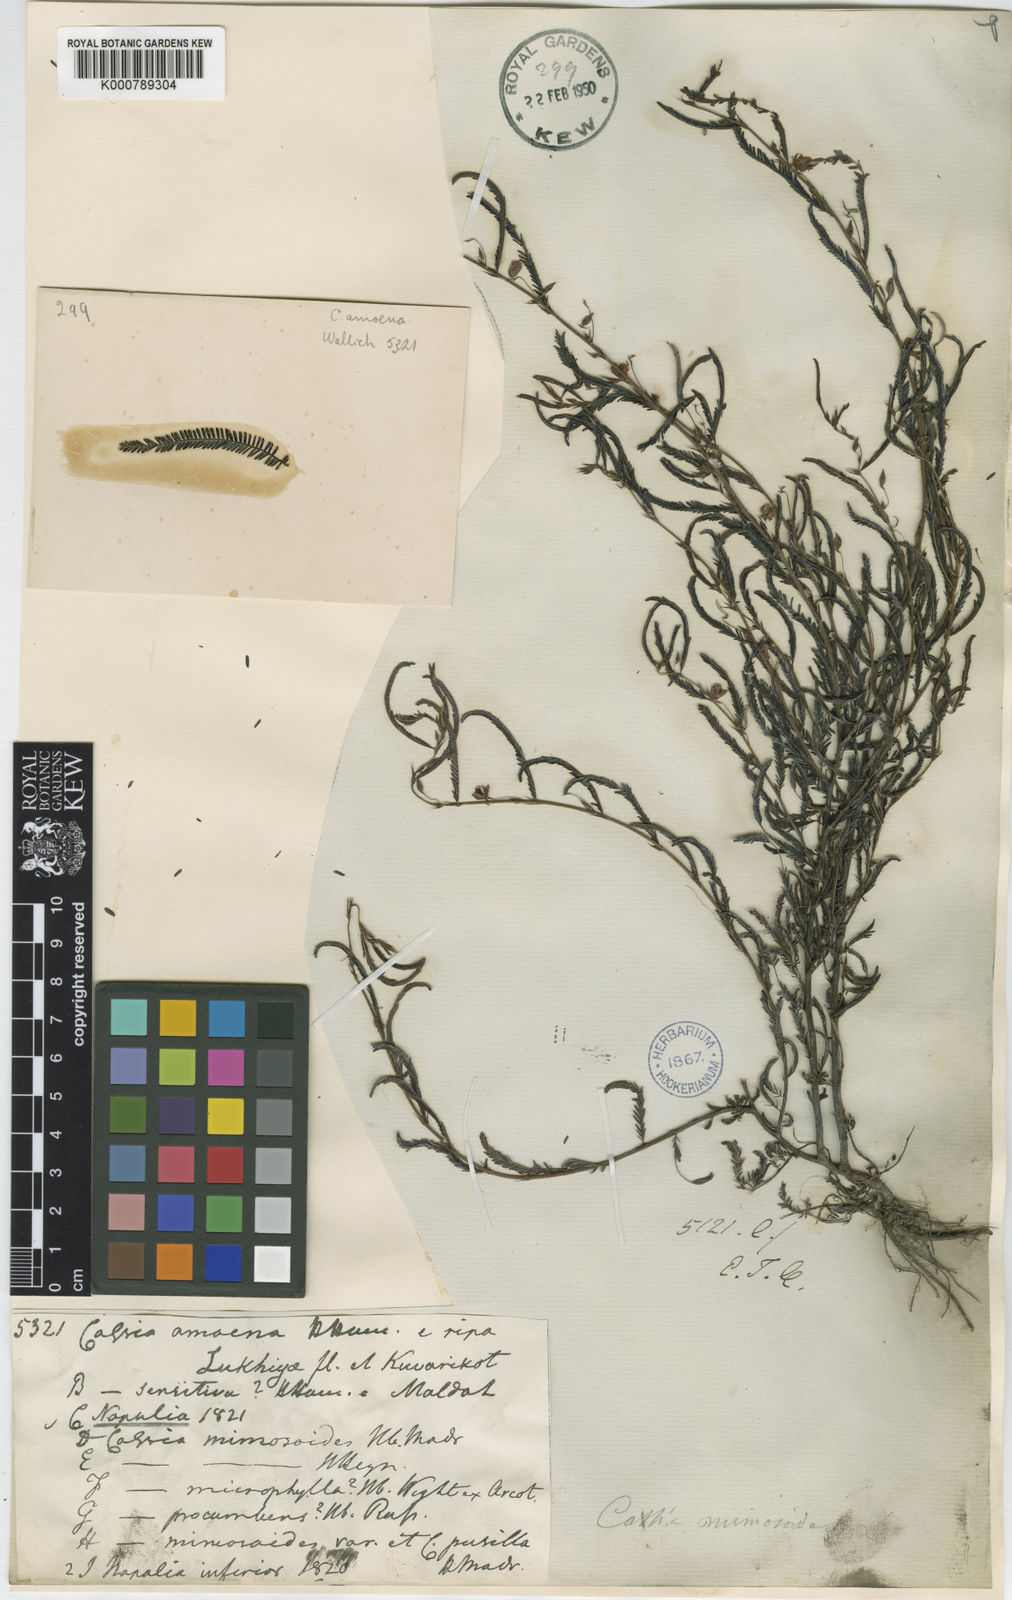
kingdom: Plantae
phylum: Tracheophyta
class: Magnoliopsida
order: Fabales
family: Fabaceae
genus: Chamaecrista
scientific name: Chamaecrista mimosoides
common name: Fish-bone cassia
